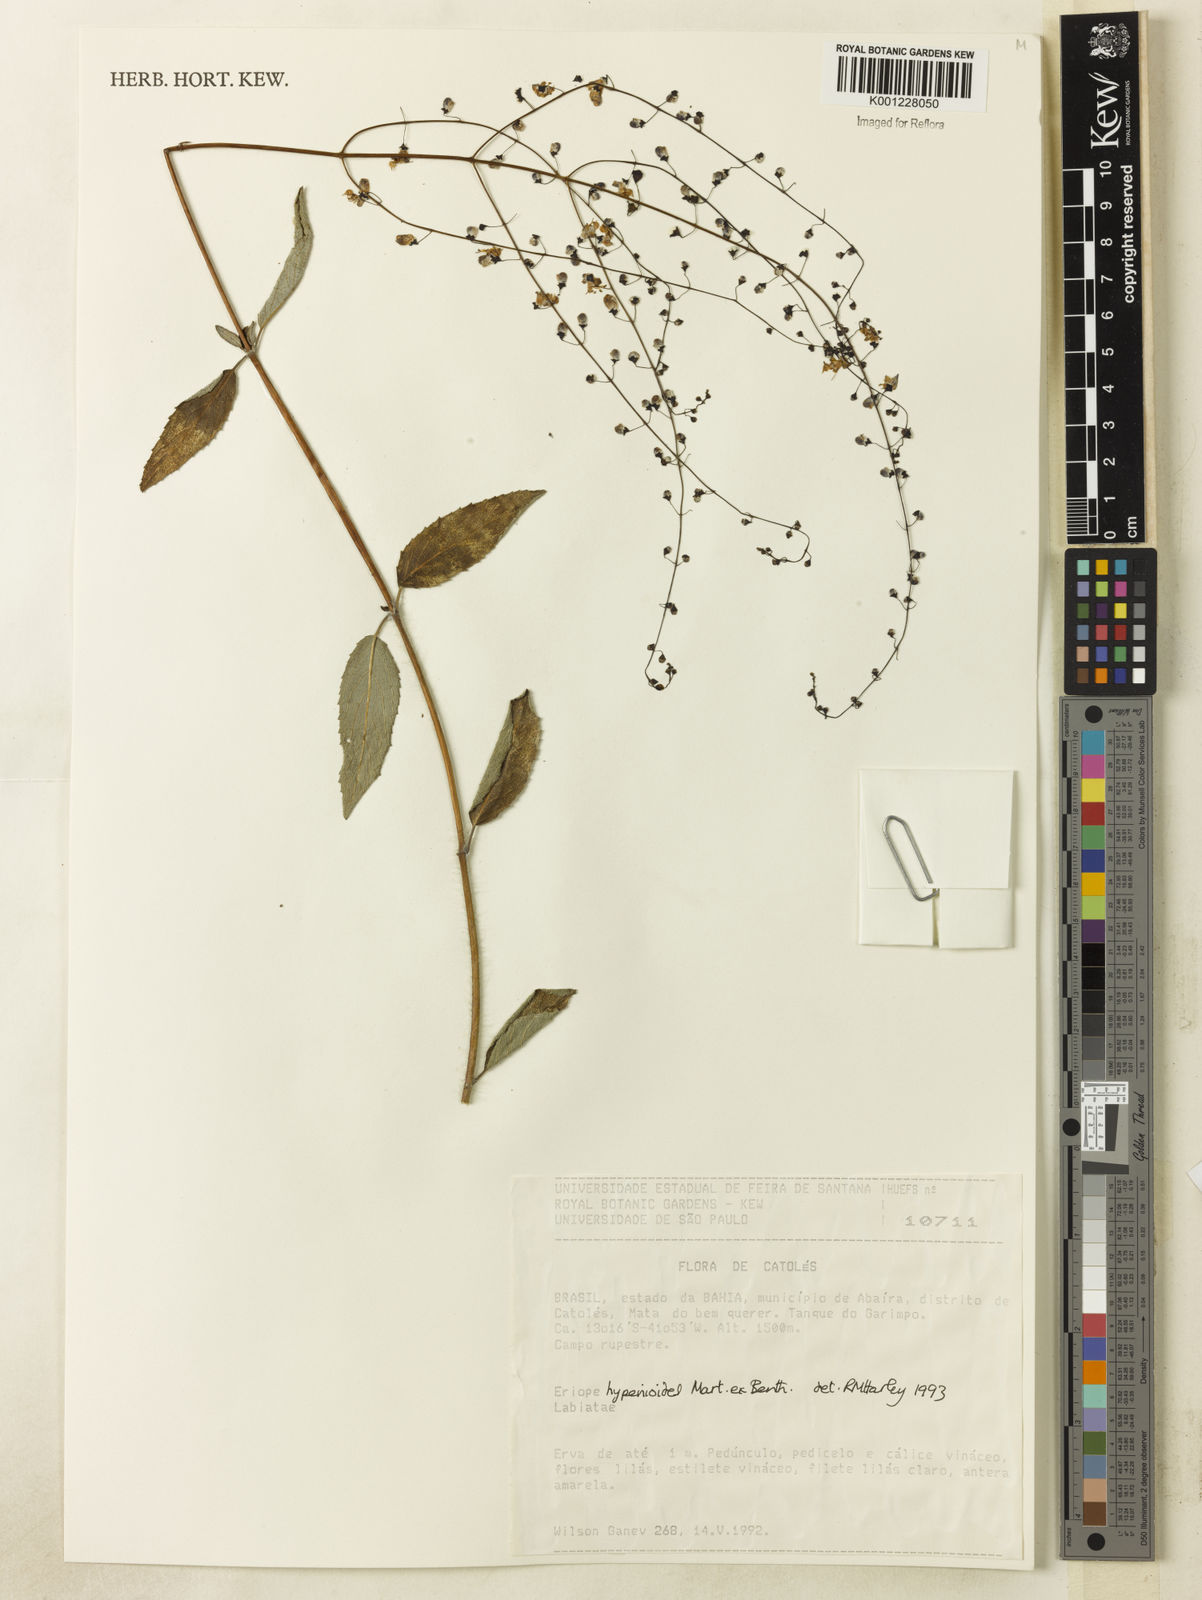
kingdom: Plantae
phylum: Tracheophyta
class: Magnoliopsida
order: Lamiales
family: Lamiaceae
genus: Eriope
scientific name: Eriope hypenioides
